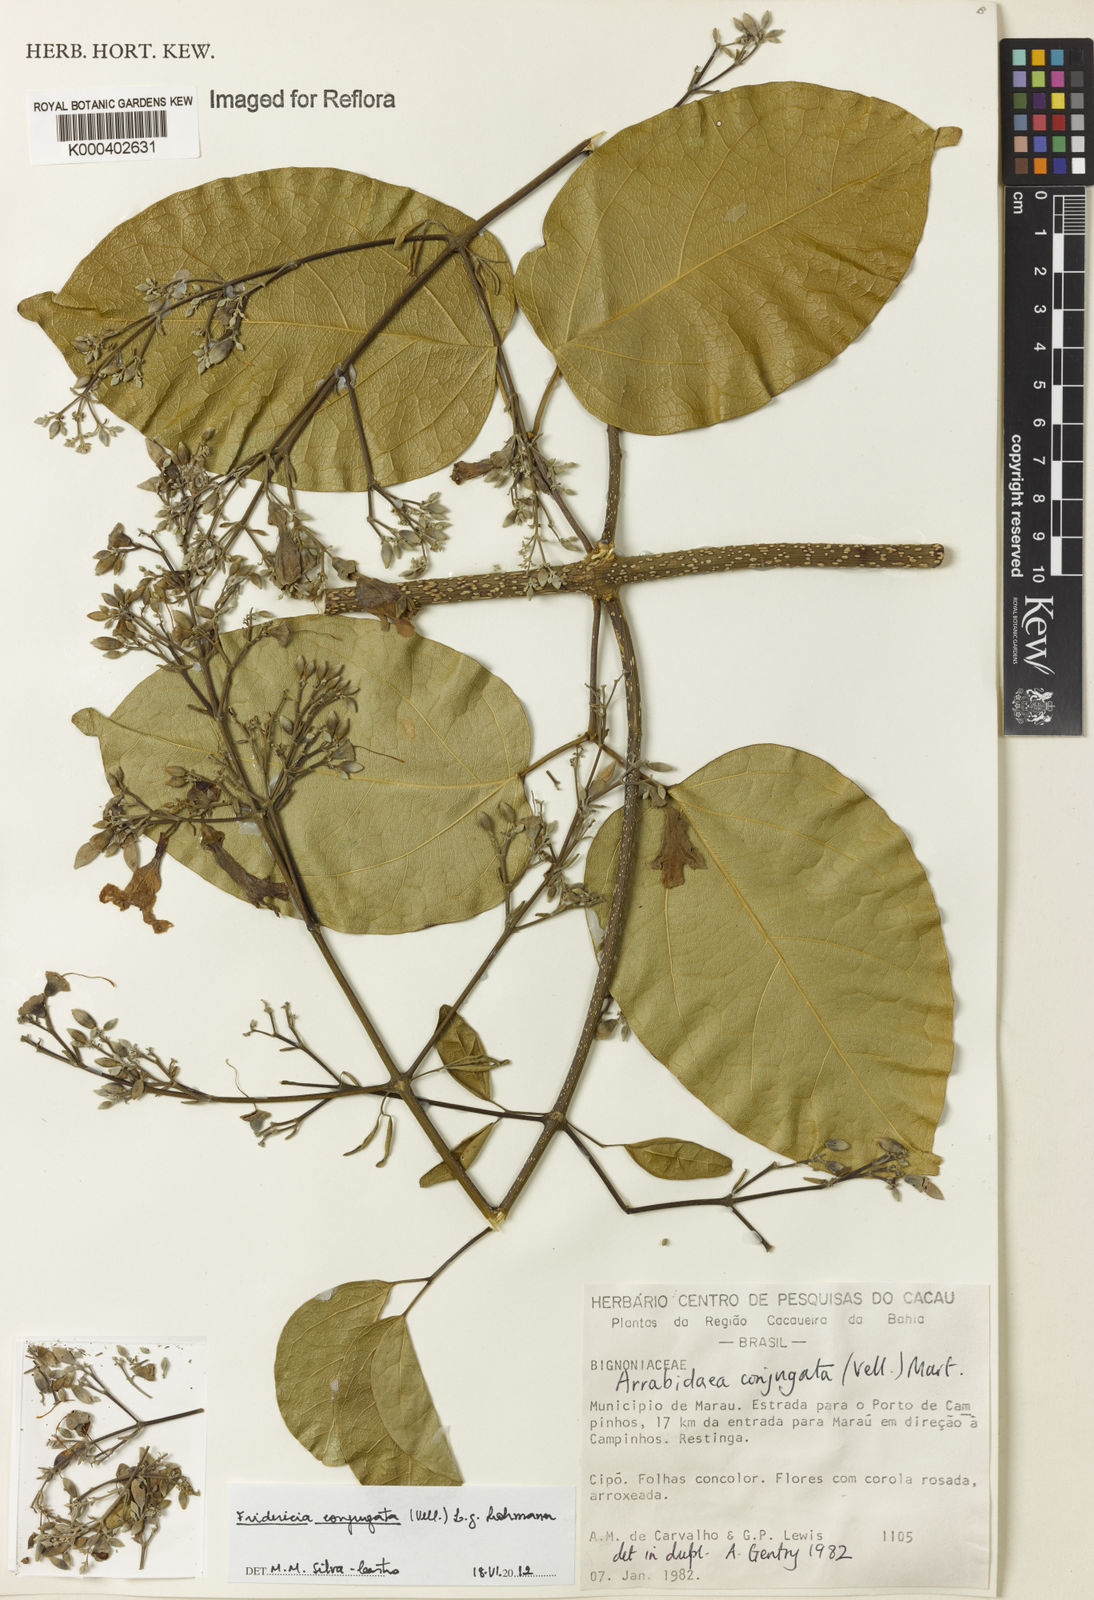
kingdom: Plantae
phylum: Tracheophyta
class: Magnoliopsida
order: Lamiales
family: Bignoniaceae
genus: Fridericia
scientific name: Fridericia conjugata
